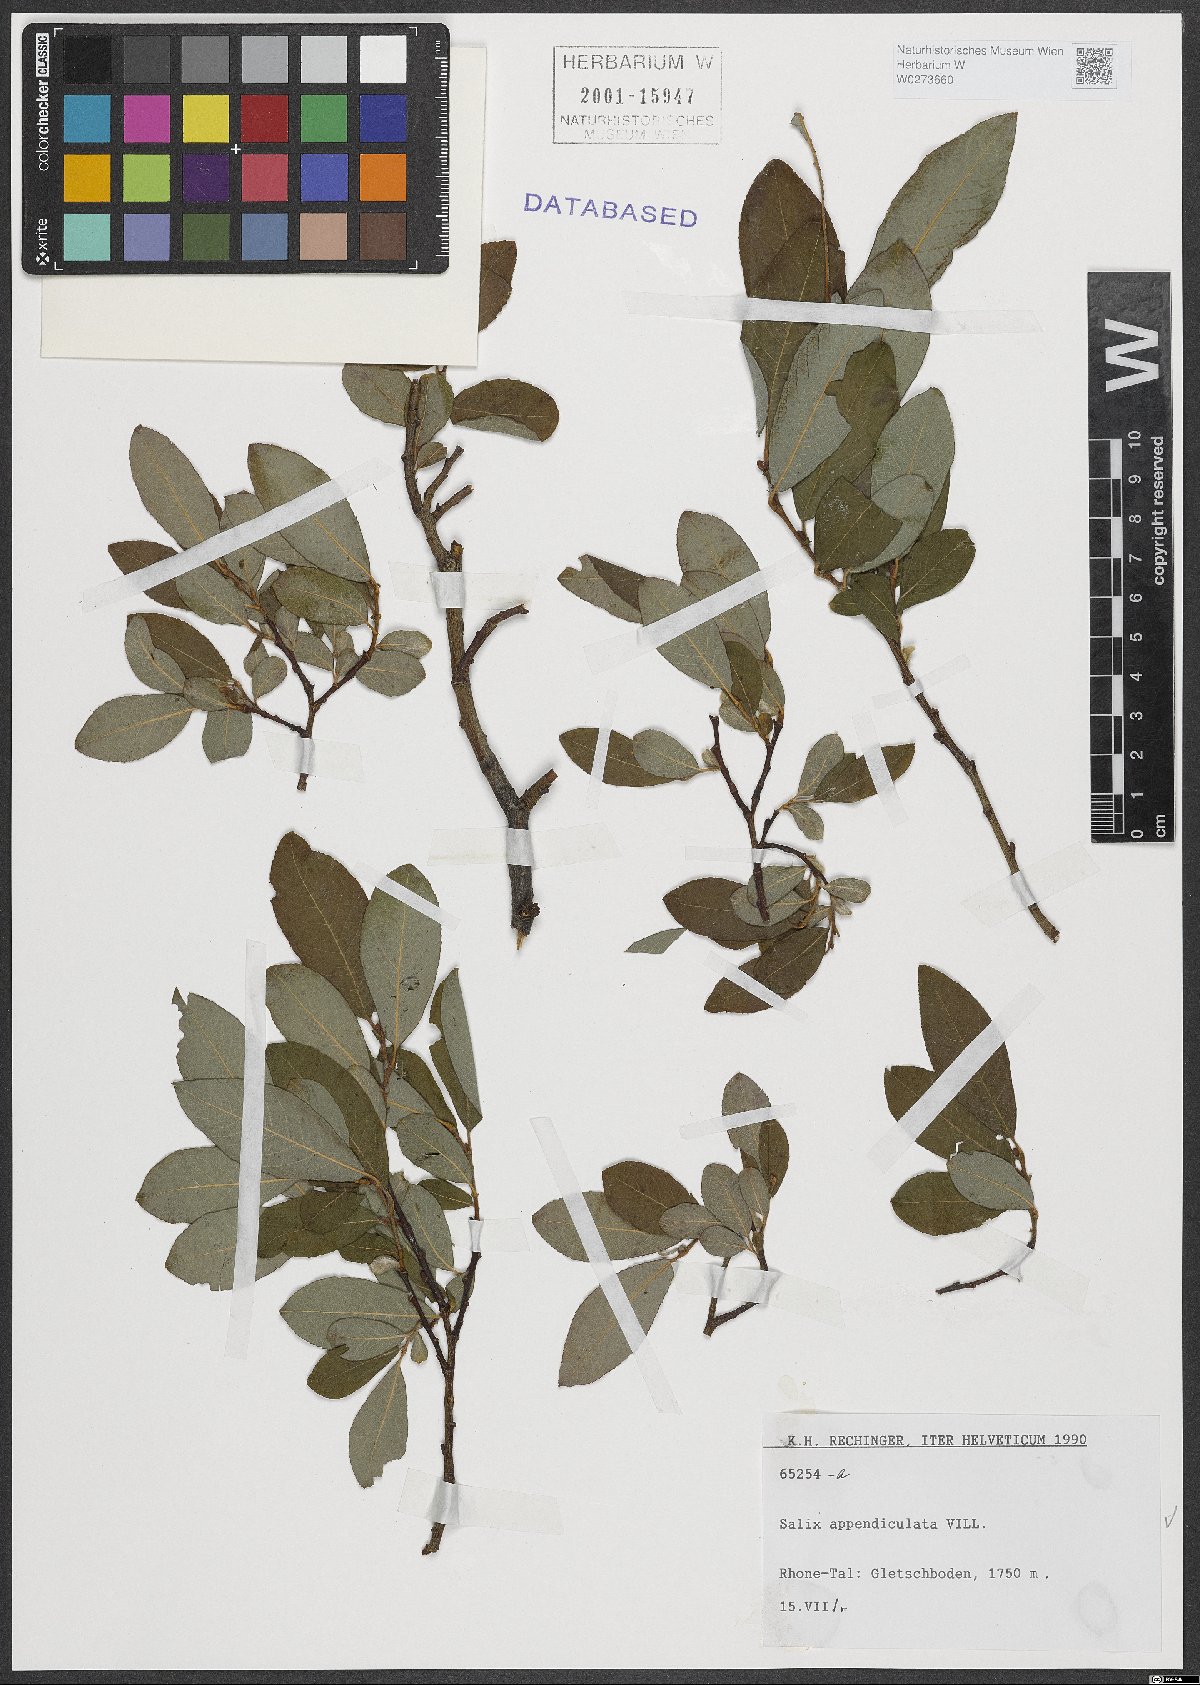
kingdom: Plantae
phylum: Tracheophyta
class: Magnoliopsida
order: Malpighiales
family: Salicaceae
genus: Salix
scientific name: Salix appendiculata
